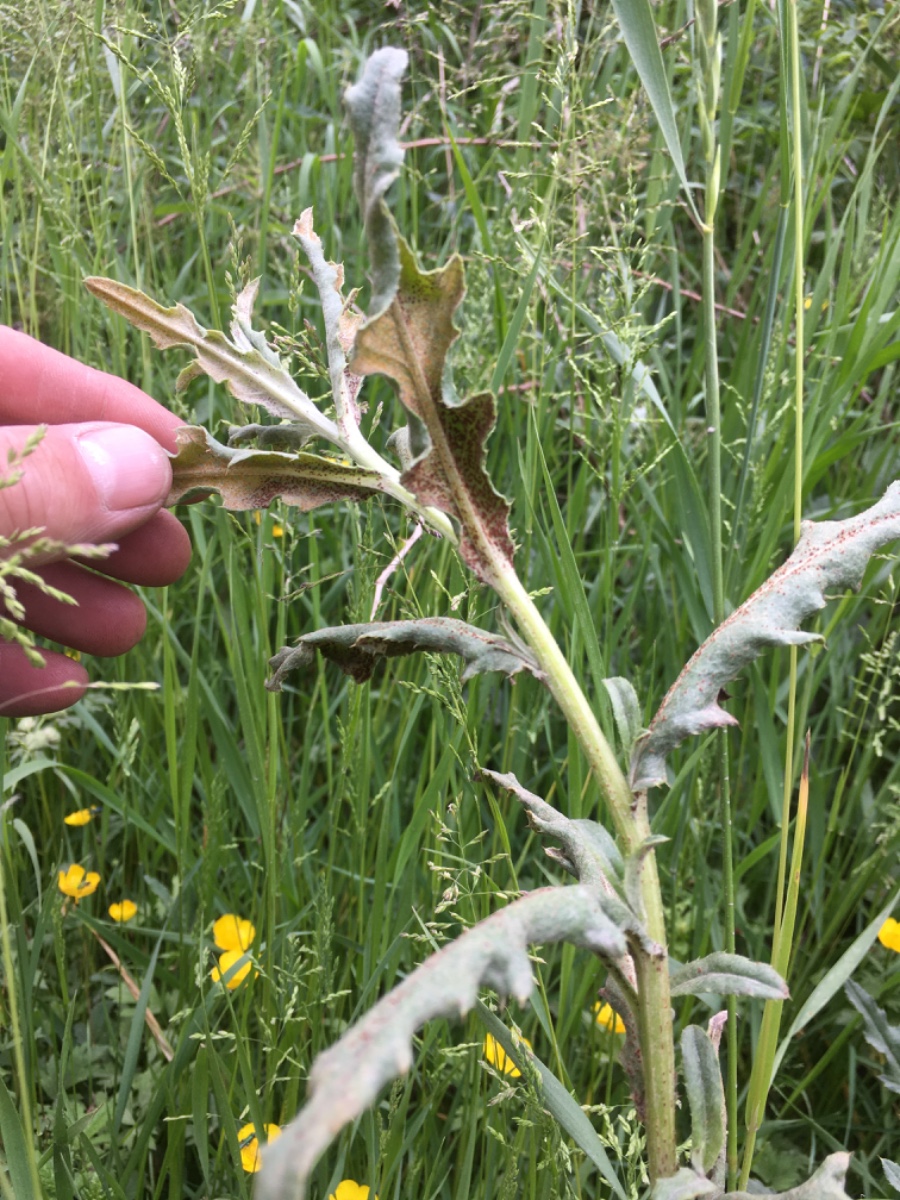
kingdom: Fungi
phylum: Basidiomycota
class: Pucciniomycetes
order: Pucciniales
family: Pucciniaceae
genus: Puccinia
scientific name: Puccinia suaveolens
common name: tidsel-tvecellerust
